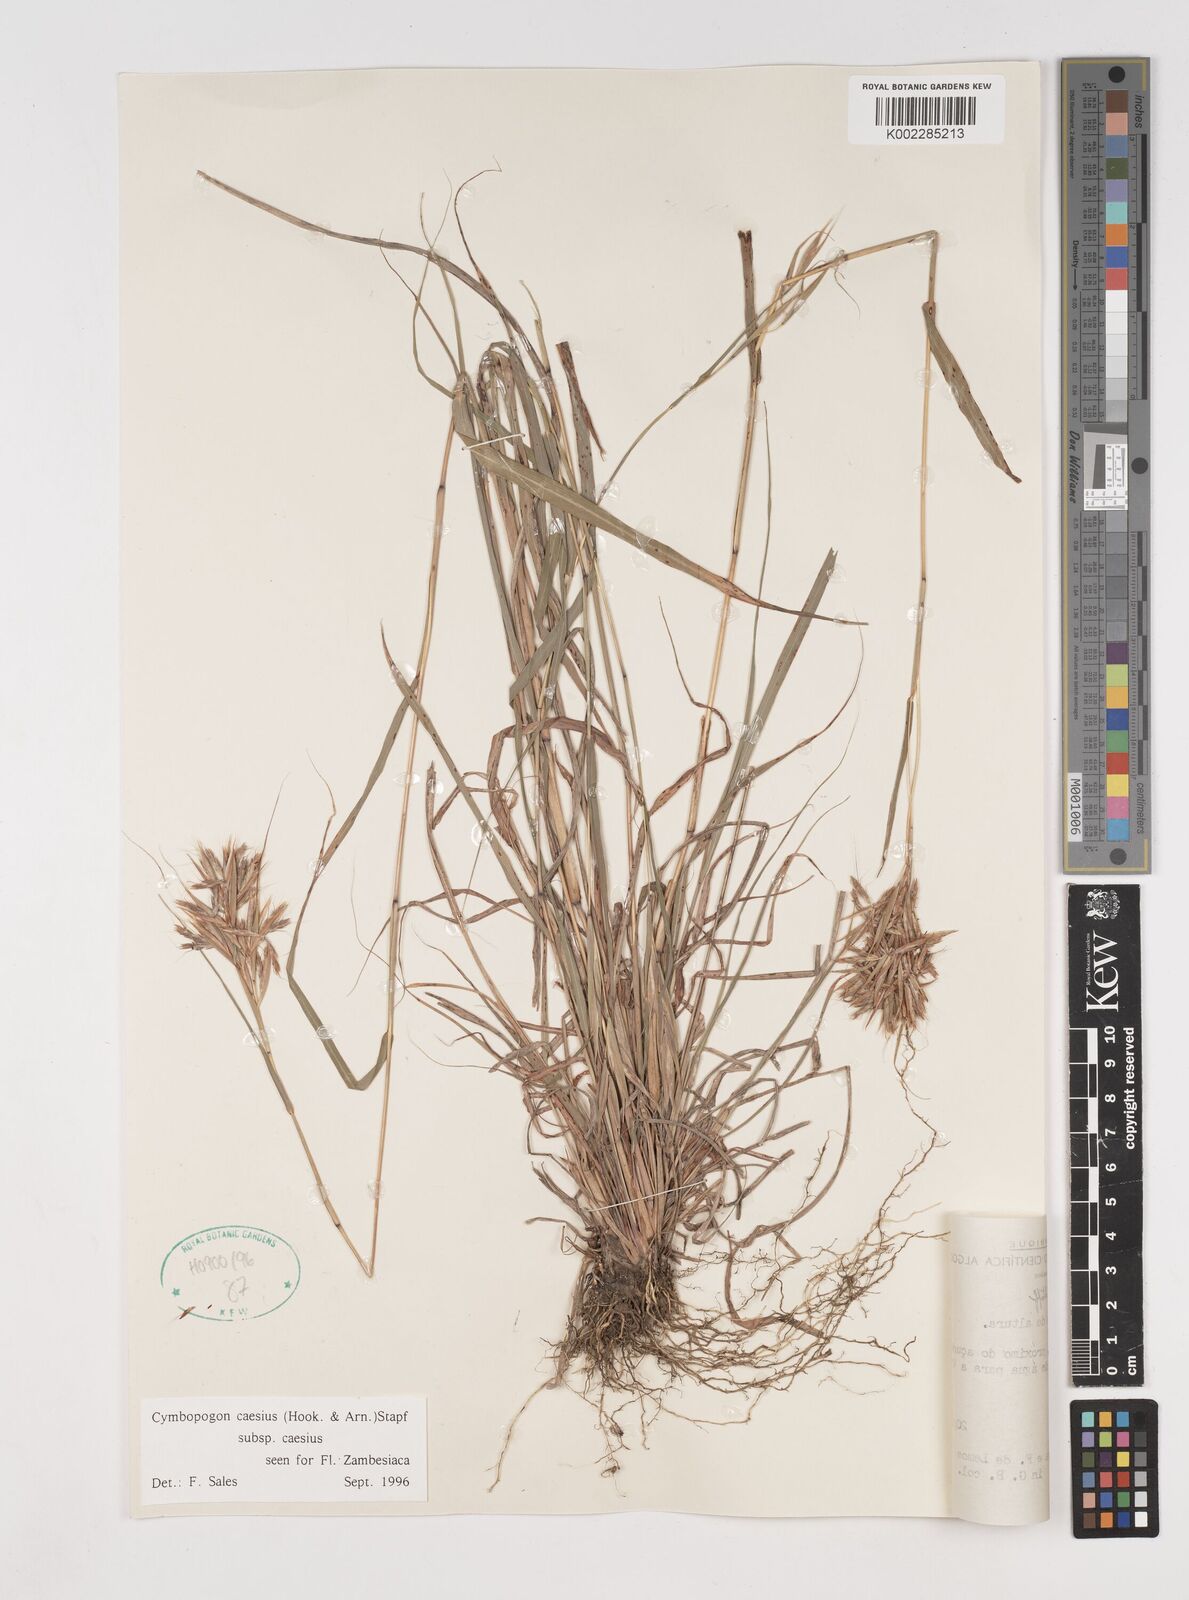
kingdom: Plantae
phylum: Tracheophyta
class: Liliopsida
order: Poales
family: Poaceae
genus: Cymbopogon
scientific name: Cymbopogon caesius
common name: Kachi grass
